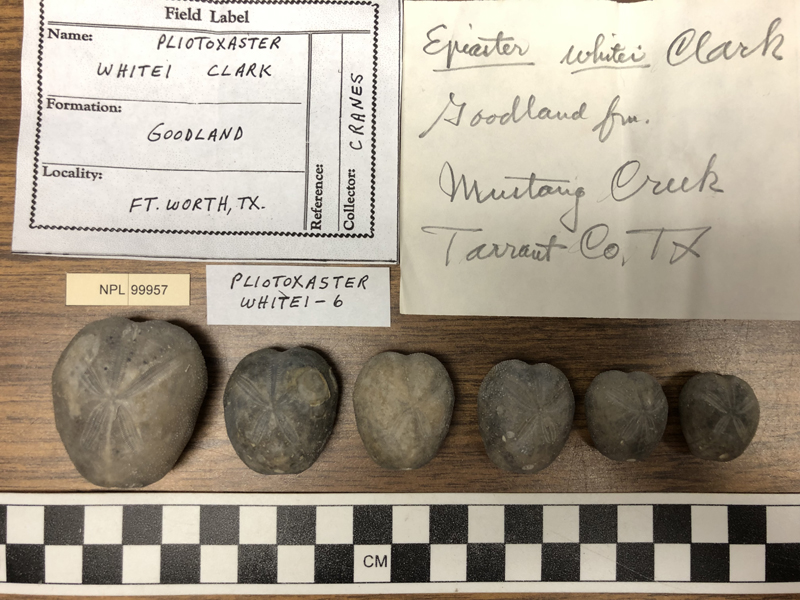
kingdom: Animalia
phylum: Echinodermata
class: Echinoidea
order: Spatangoida
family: Toxasteridae
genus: Pliotoxaster
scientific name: Pliotoxaster
